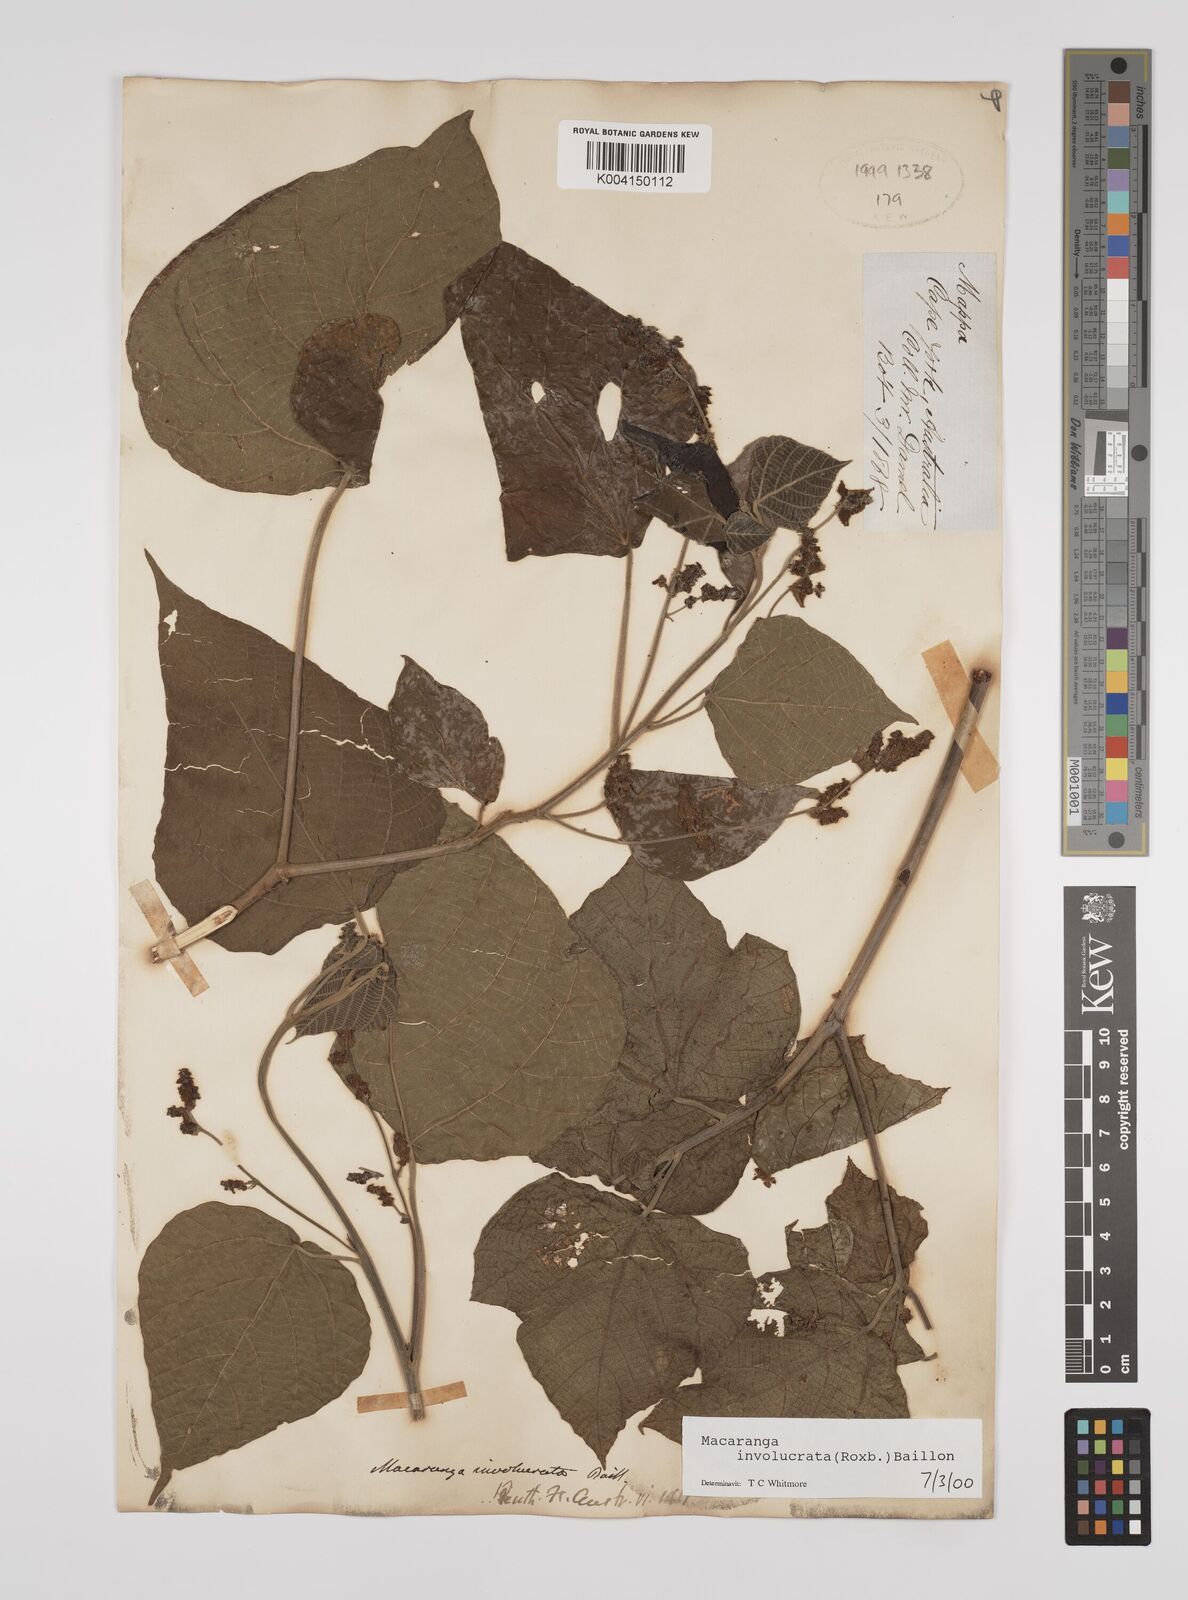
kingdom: Plantae
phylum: Tracheophyta
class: Magnoliopsida
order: Malpighiales
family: Euphorbiaceae
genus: Macaranga
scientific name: Macaranga involucrata
